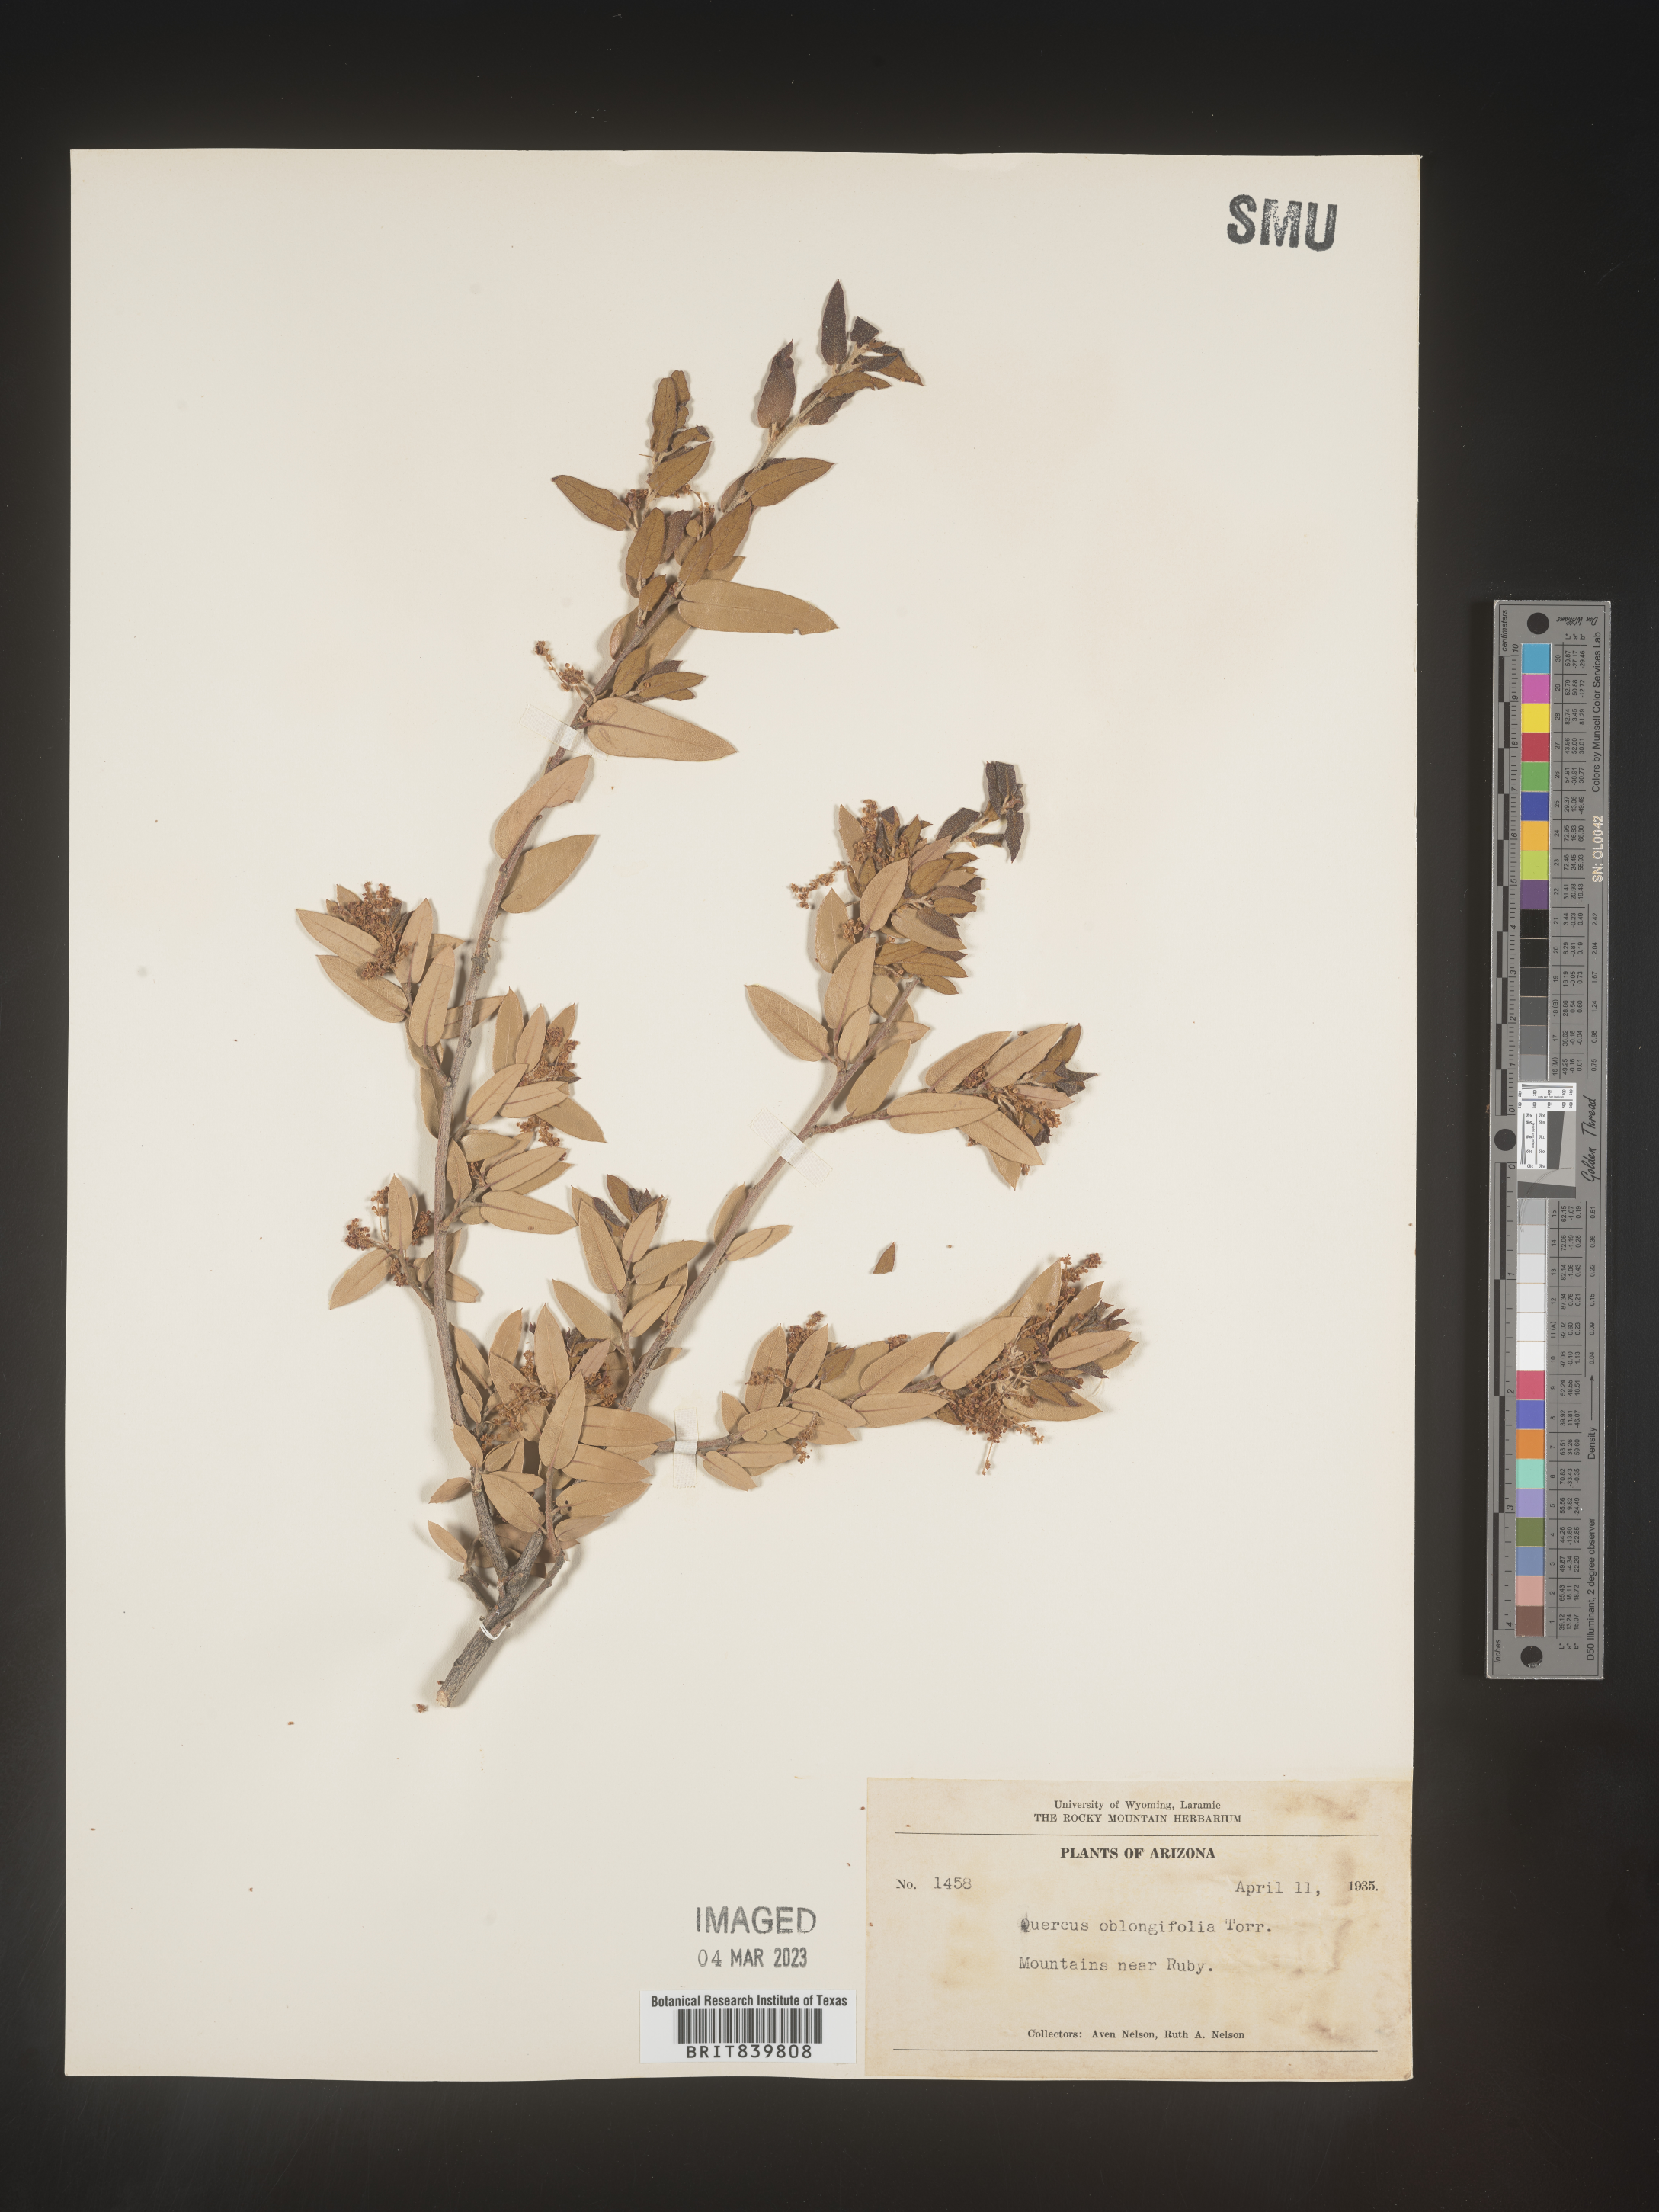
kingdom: Plantae
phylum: Tracheophyta
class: Magnoliopsida
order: Fagales
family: Fagaceae
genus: Quercus
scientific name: Quercus oblongifolia
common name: Mexican blue oak
